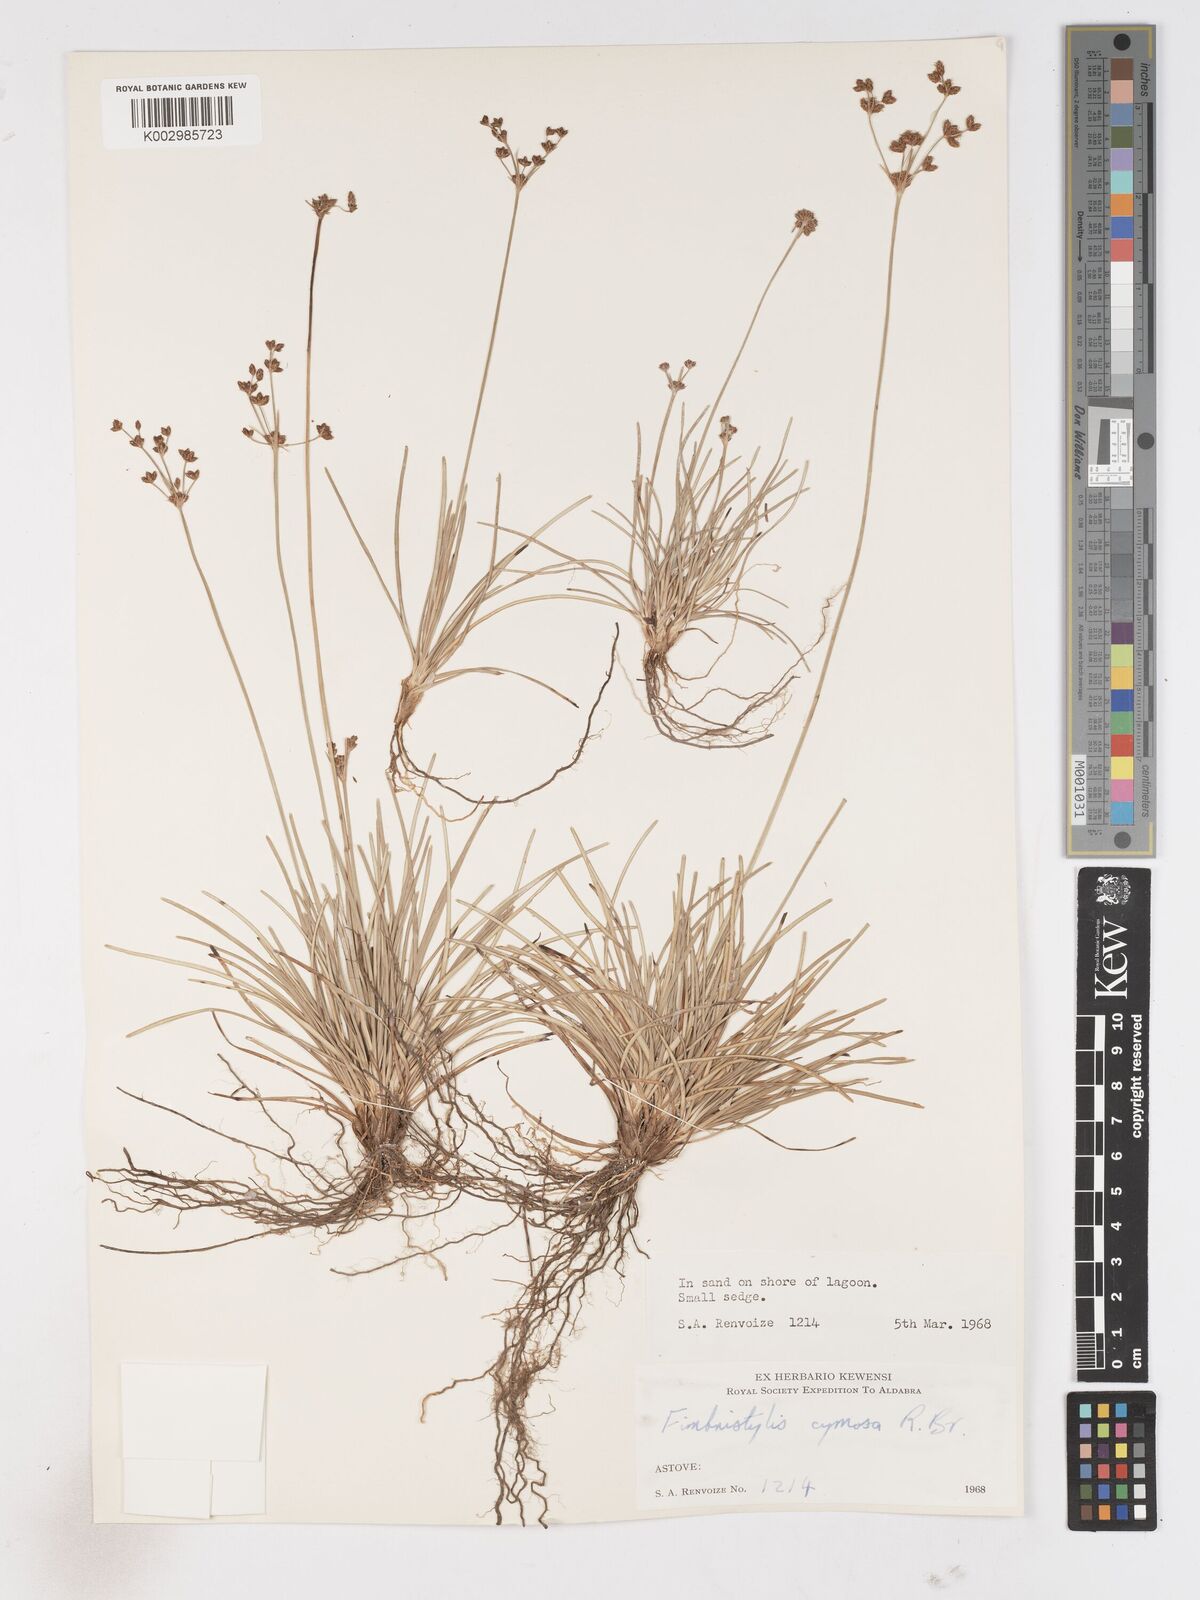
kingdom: Plantae
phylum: Tracheophyta
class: Liliopsida
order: Poales
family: Cyperaceae
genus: Fimbristylis
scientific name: Fimbristylis cymosa
